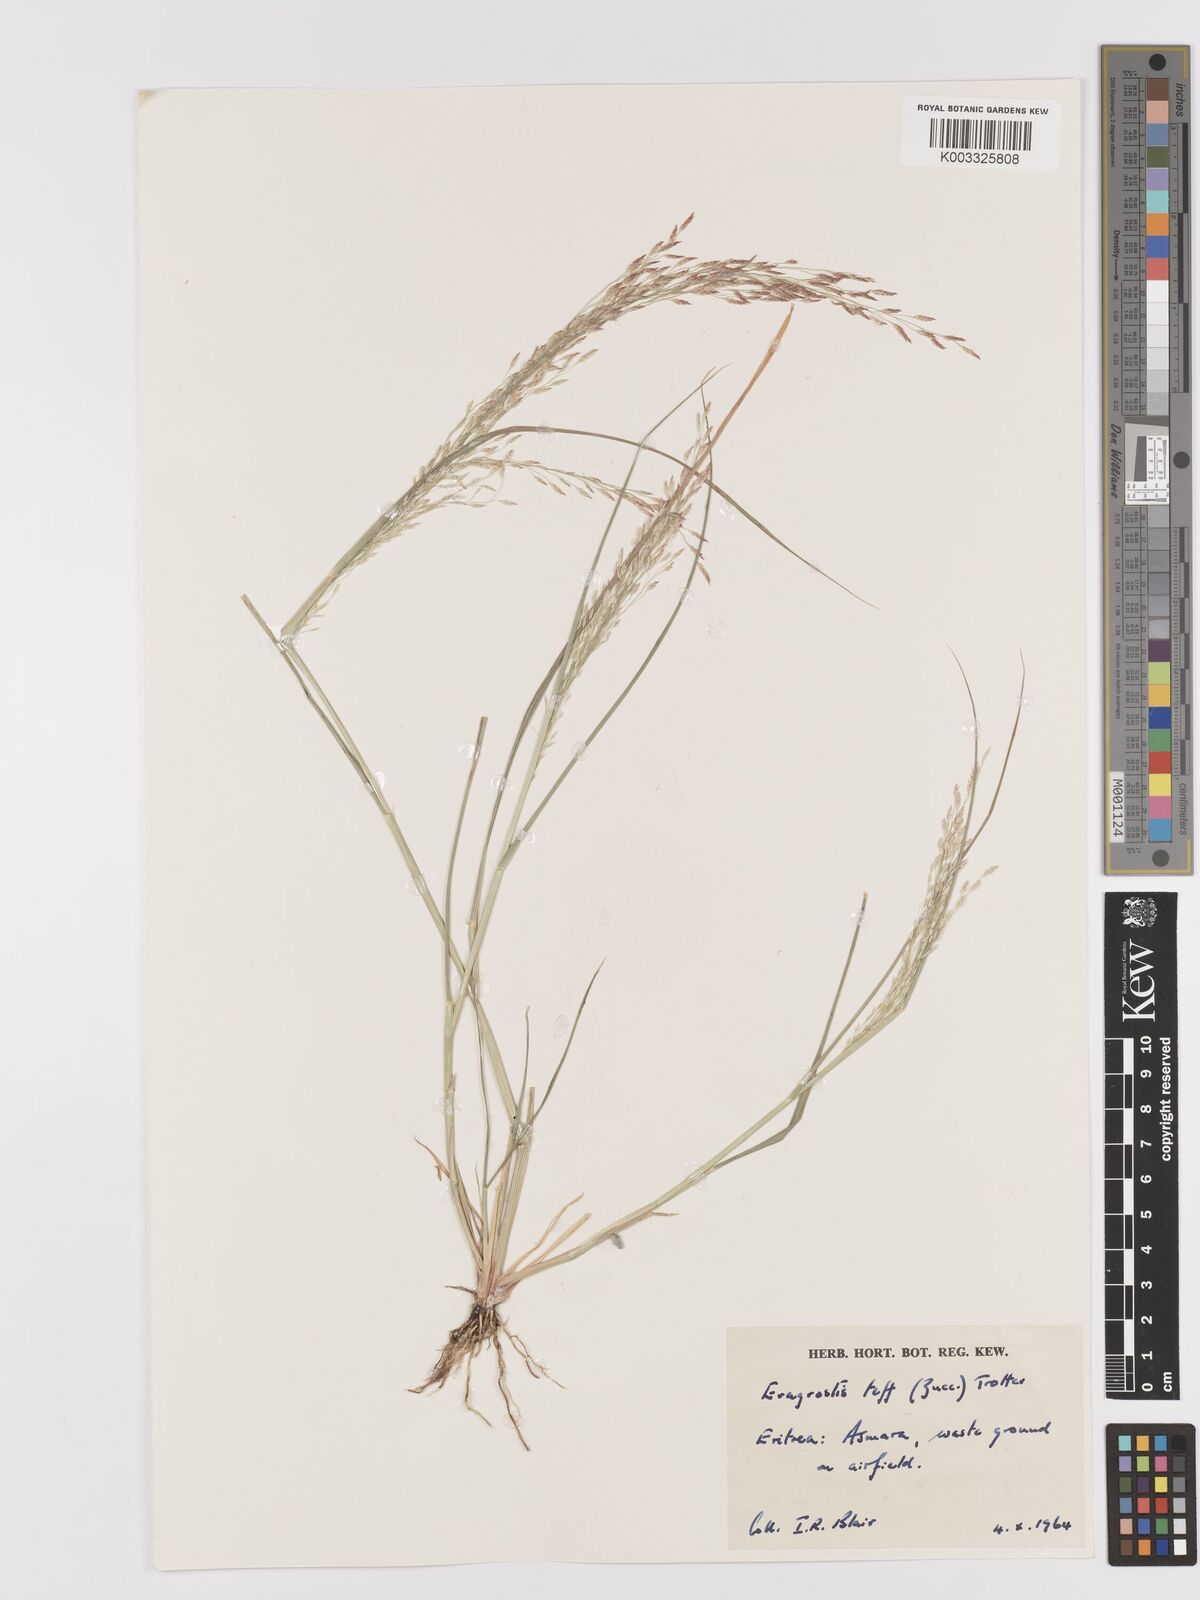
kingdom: Plantae
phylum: Tracheophyta
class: Liliopsida
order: Poales
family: Poaceae
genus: Eragrostis
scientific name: Eragrostis tef
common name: Teff
